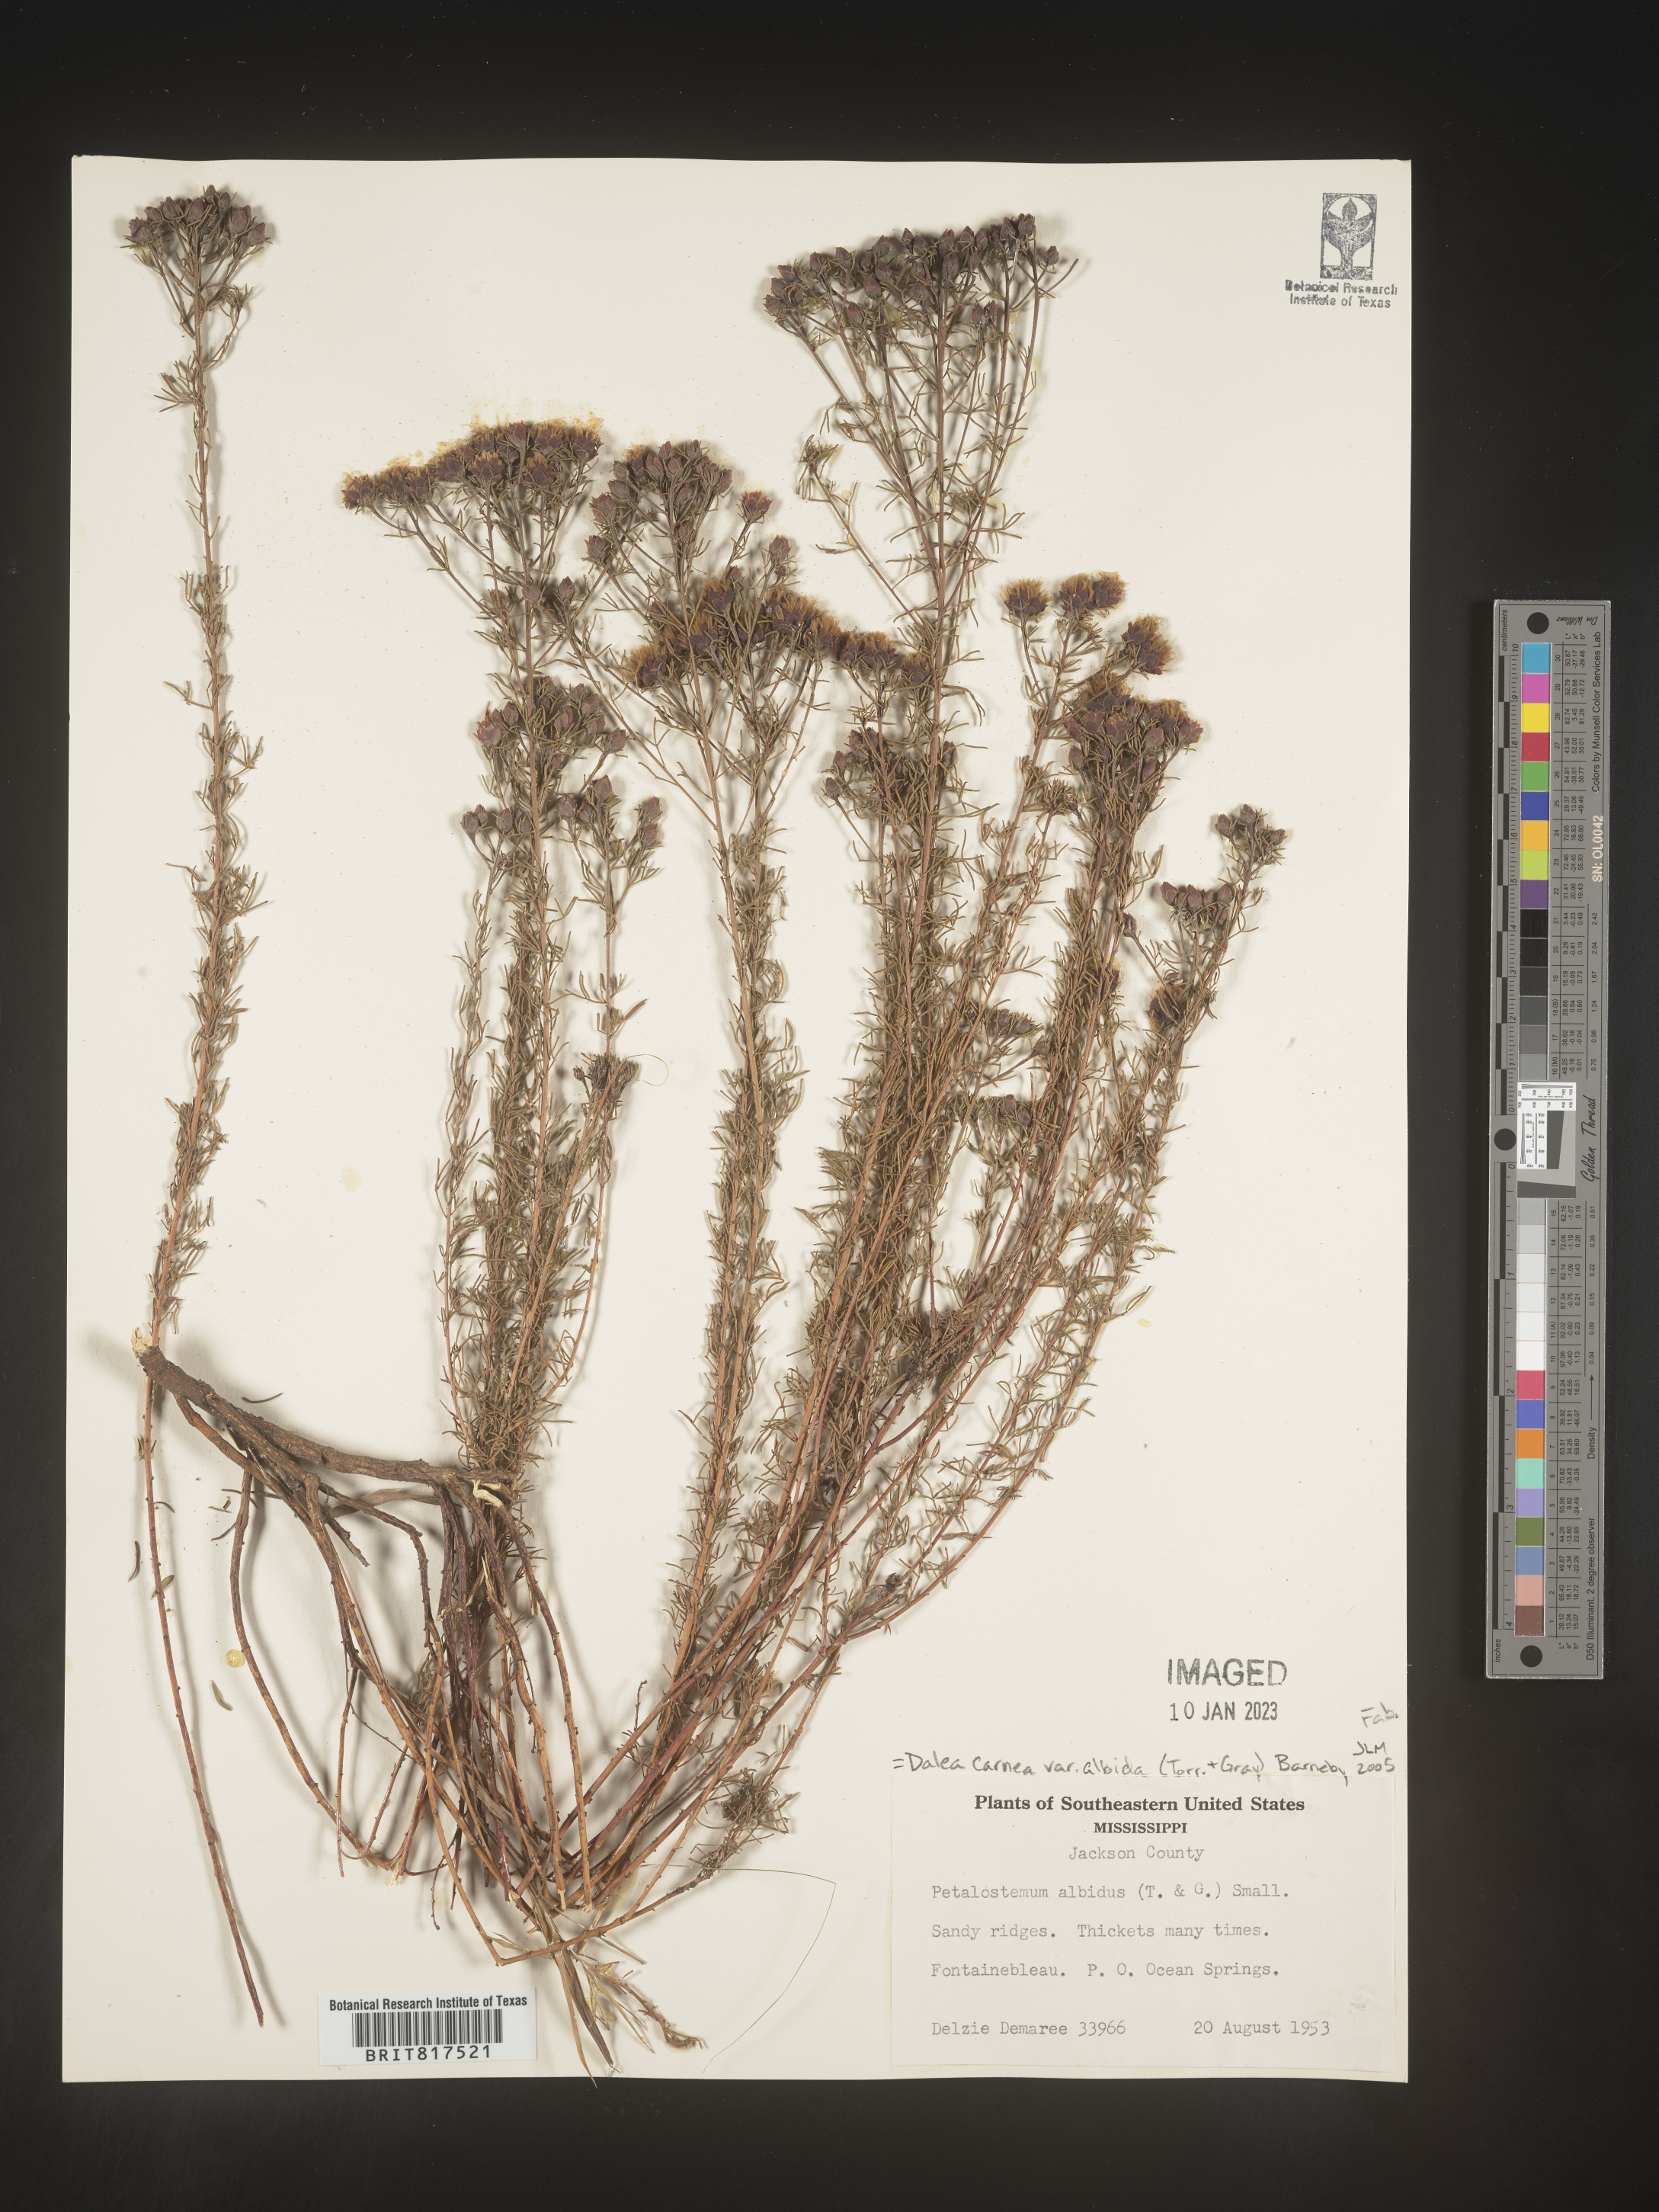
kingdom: Plantae
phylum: Tracheophyta
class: Magnoliopsida
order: Fabales
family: Fabaceae
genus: Dalea
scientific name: Dalea carnea
